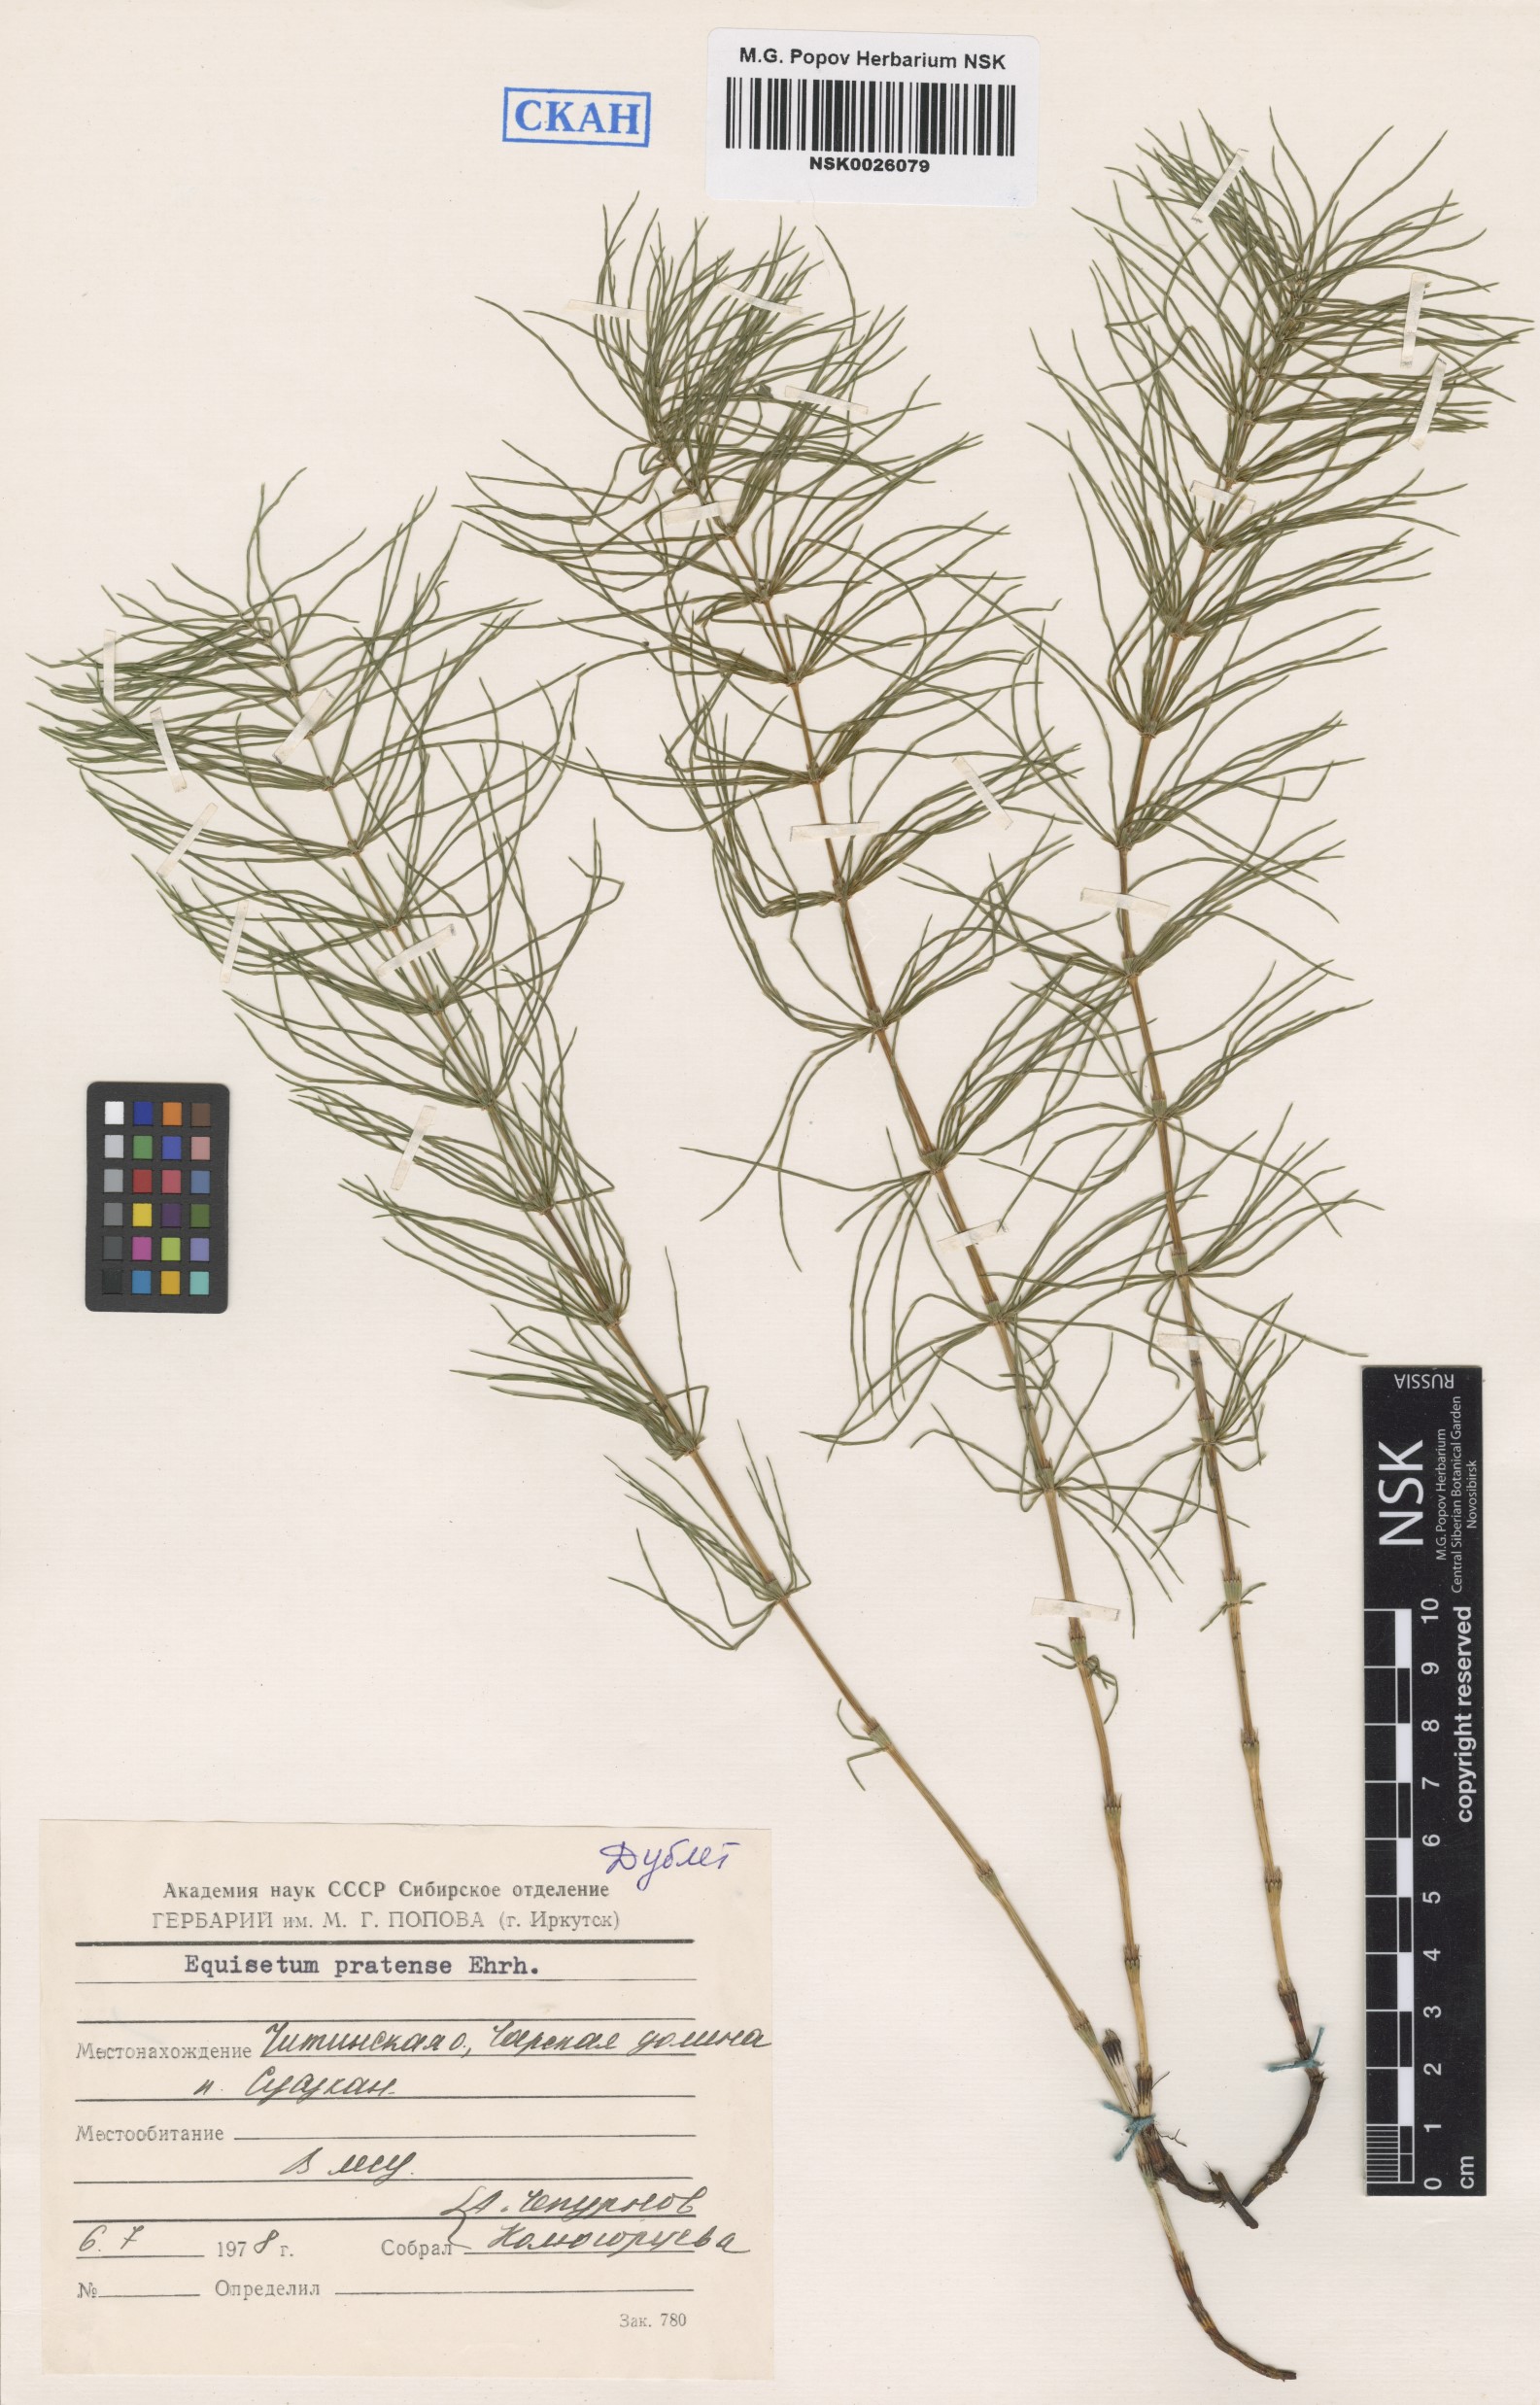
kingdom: Plantae
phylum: Tracheophyta
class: Polypodiopsida
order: Equisetales
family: Equisetaceae
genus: Equisetum
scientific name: Equisetum pratense
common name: Meadow horsetail
